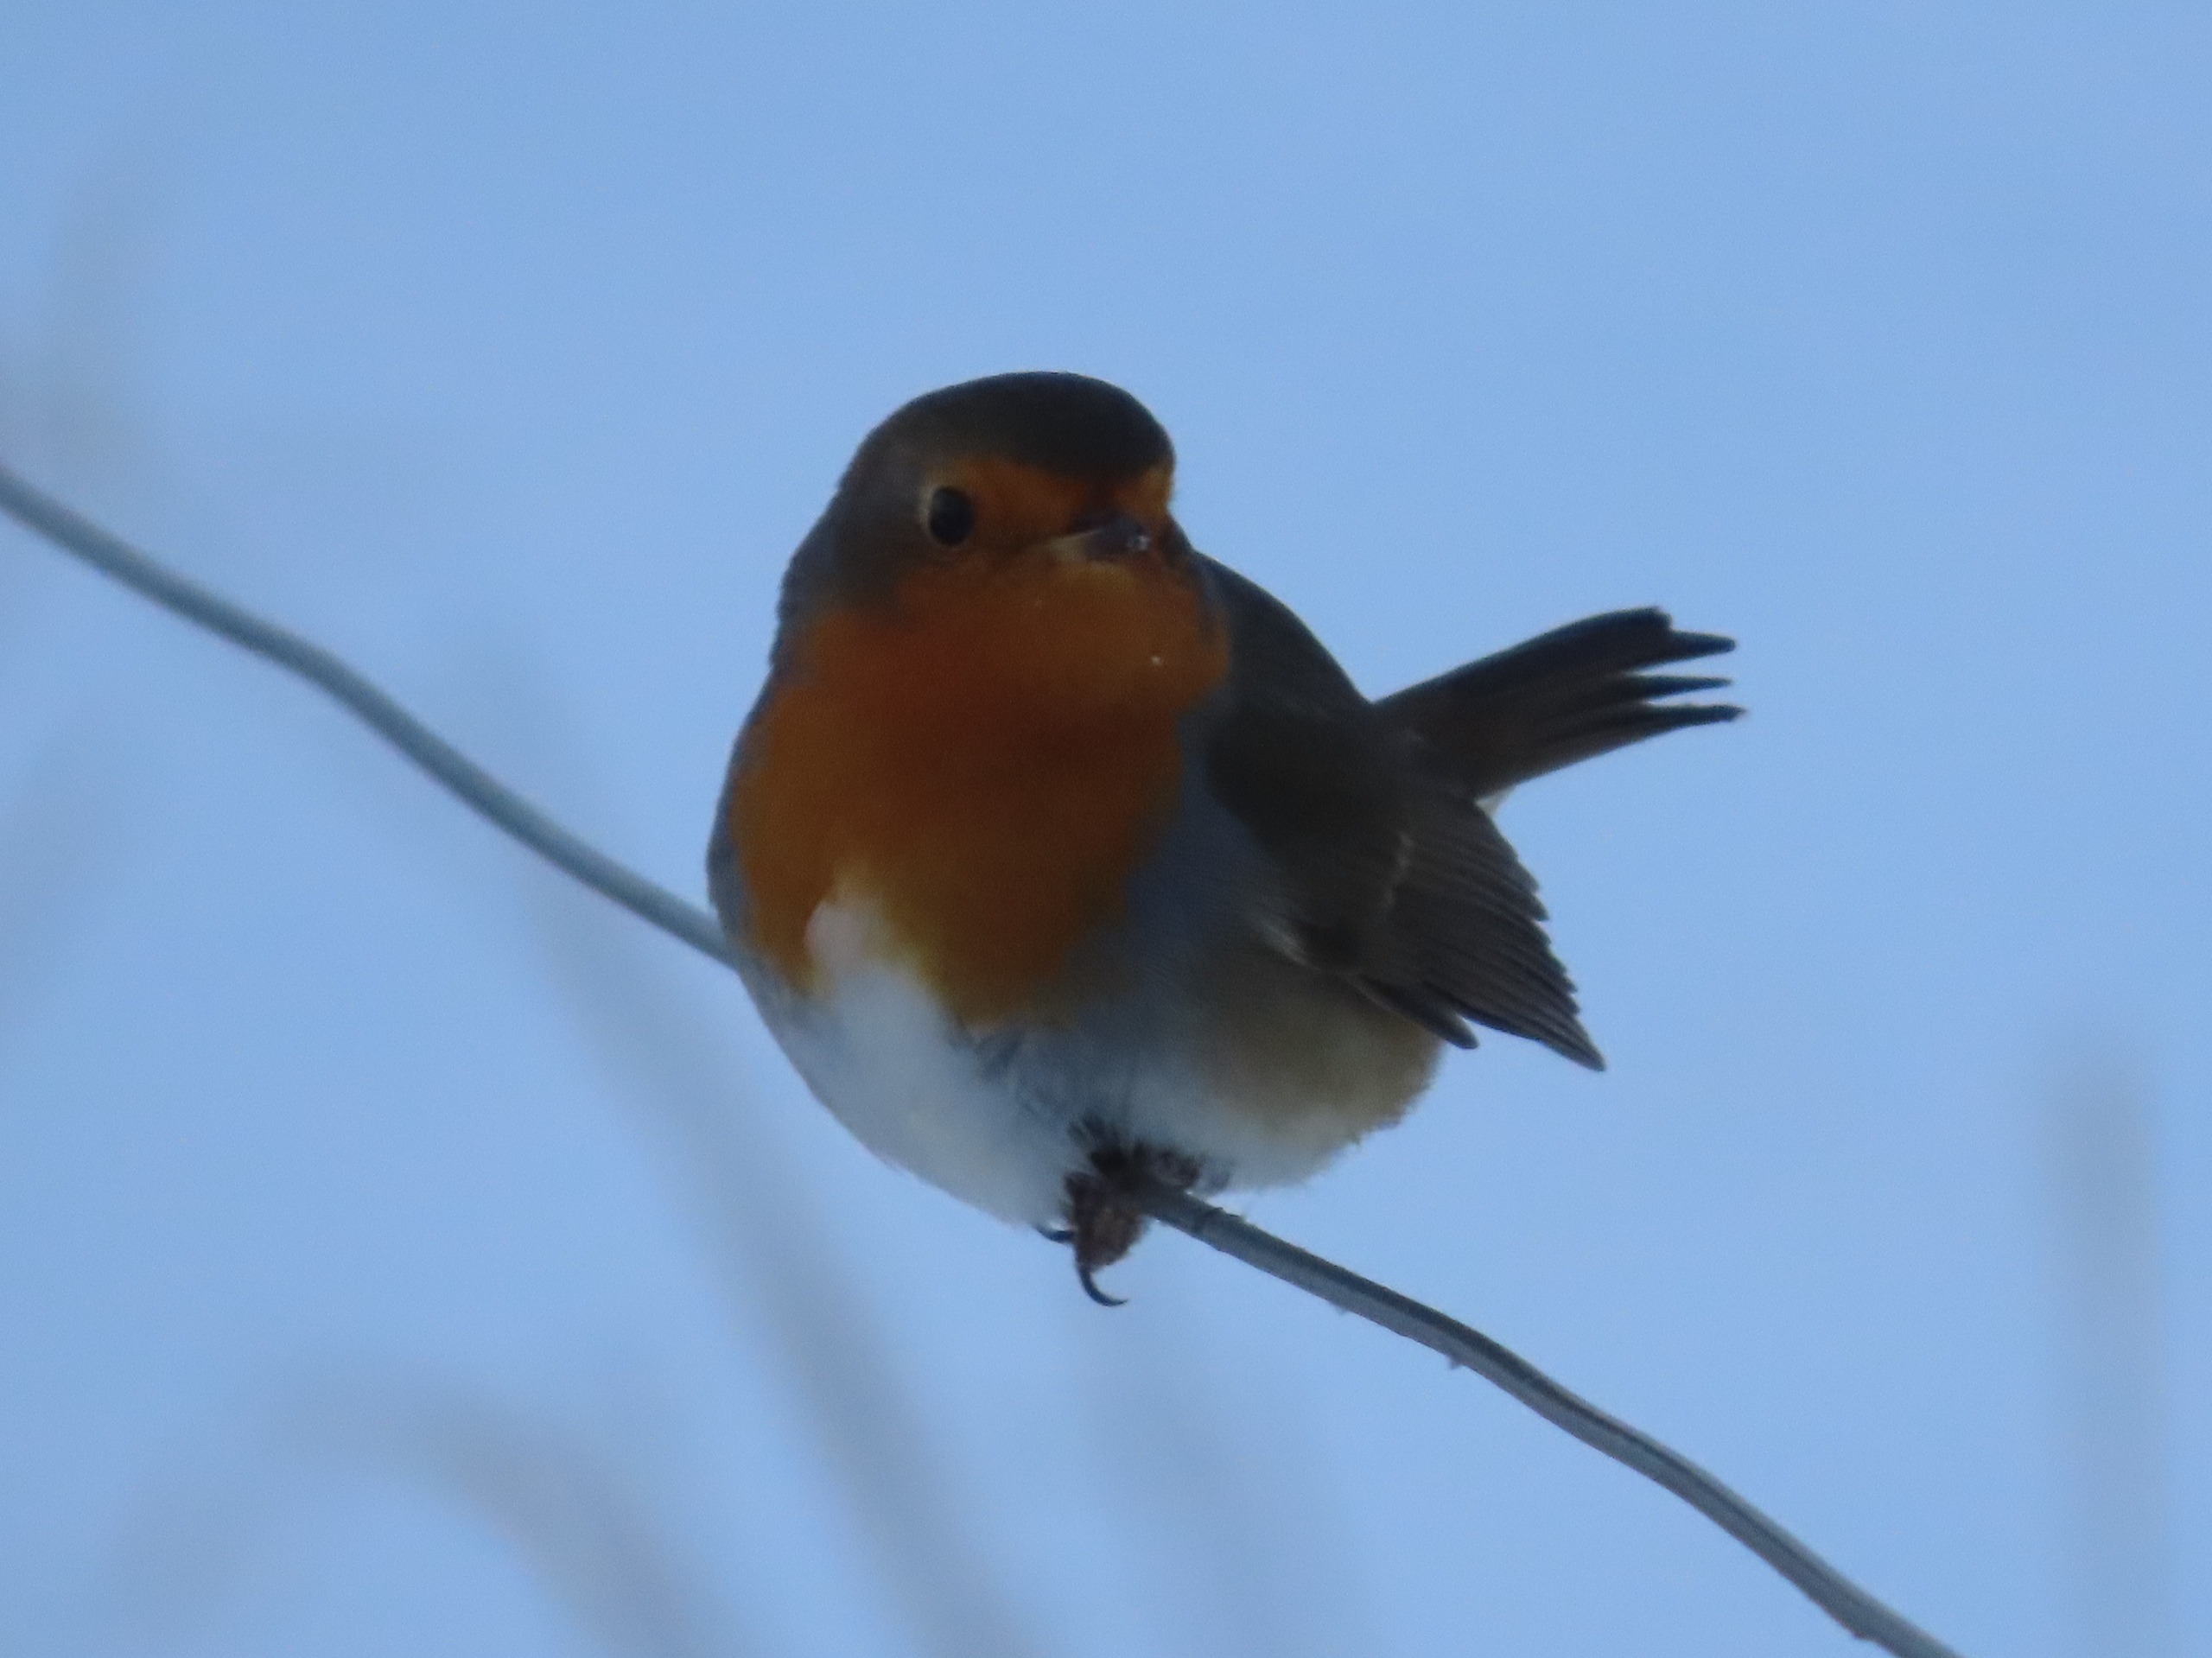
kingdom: Animalia
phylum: Chordata
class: Aves
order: Passeriformes
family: Muscicapidae
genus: Erithacus
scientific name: Erithacus rubecula
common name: Rødhals/rødkælk
